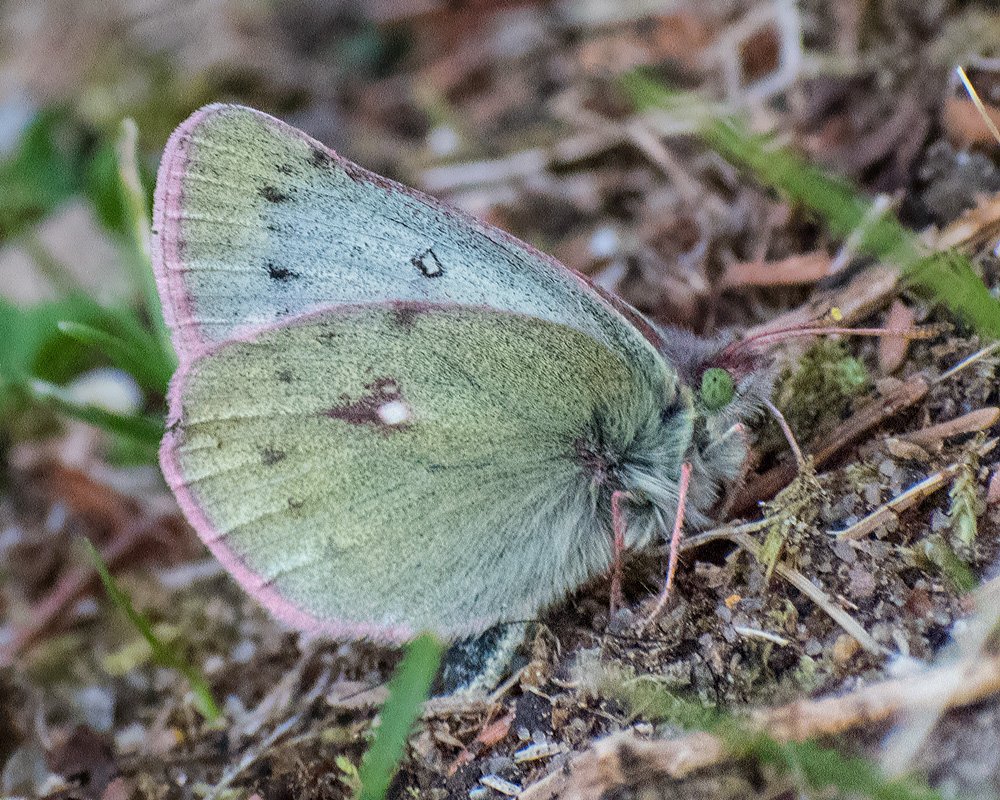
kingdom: Animalia
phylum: Arthropoda
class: Insecta
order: Lepidoptera
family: Pieridae
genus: Colias
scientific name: Colias nastes
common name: Labrador Sulphur
